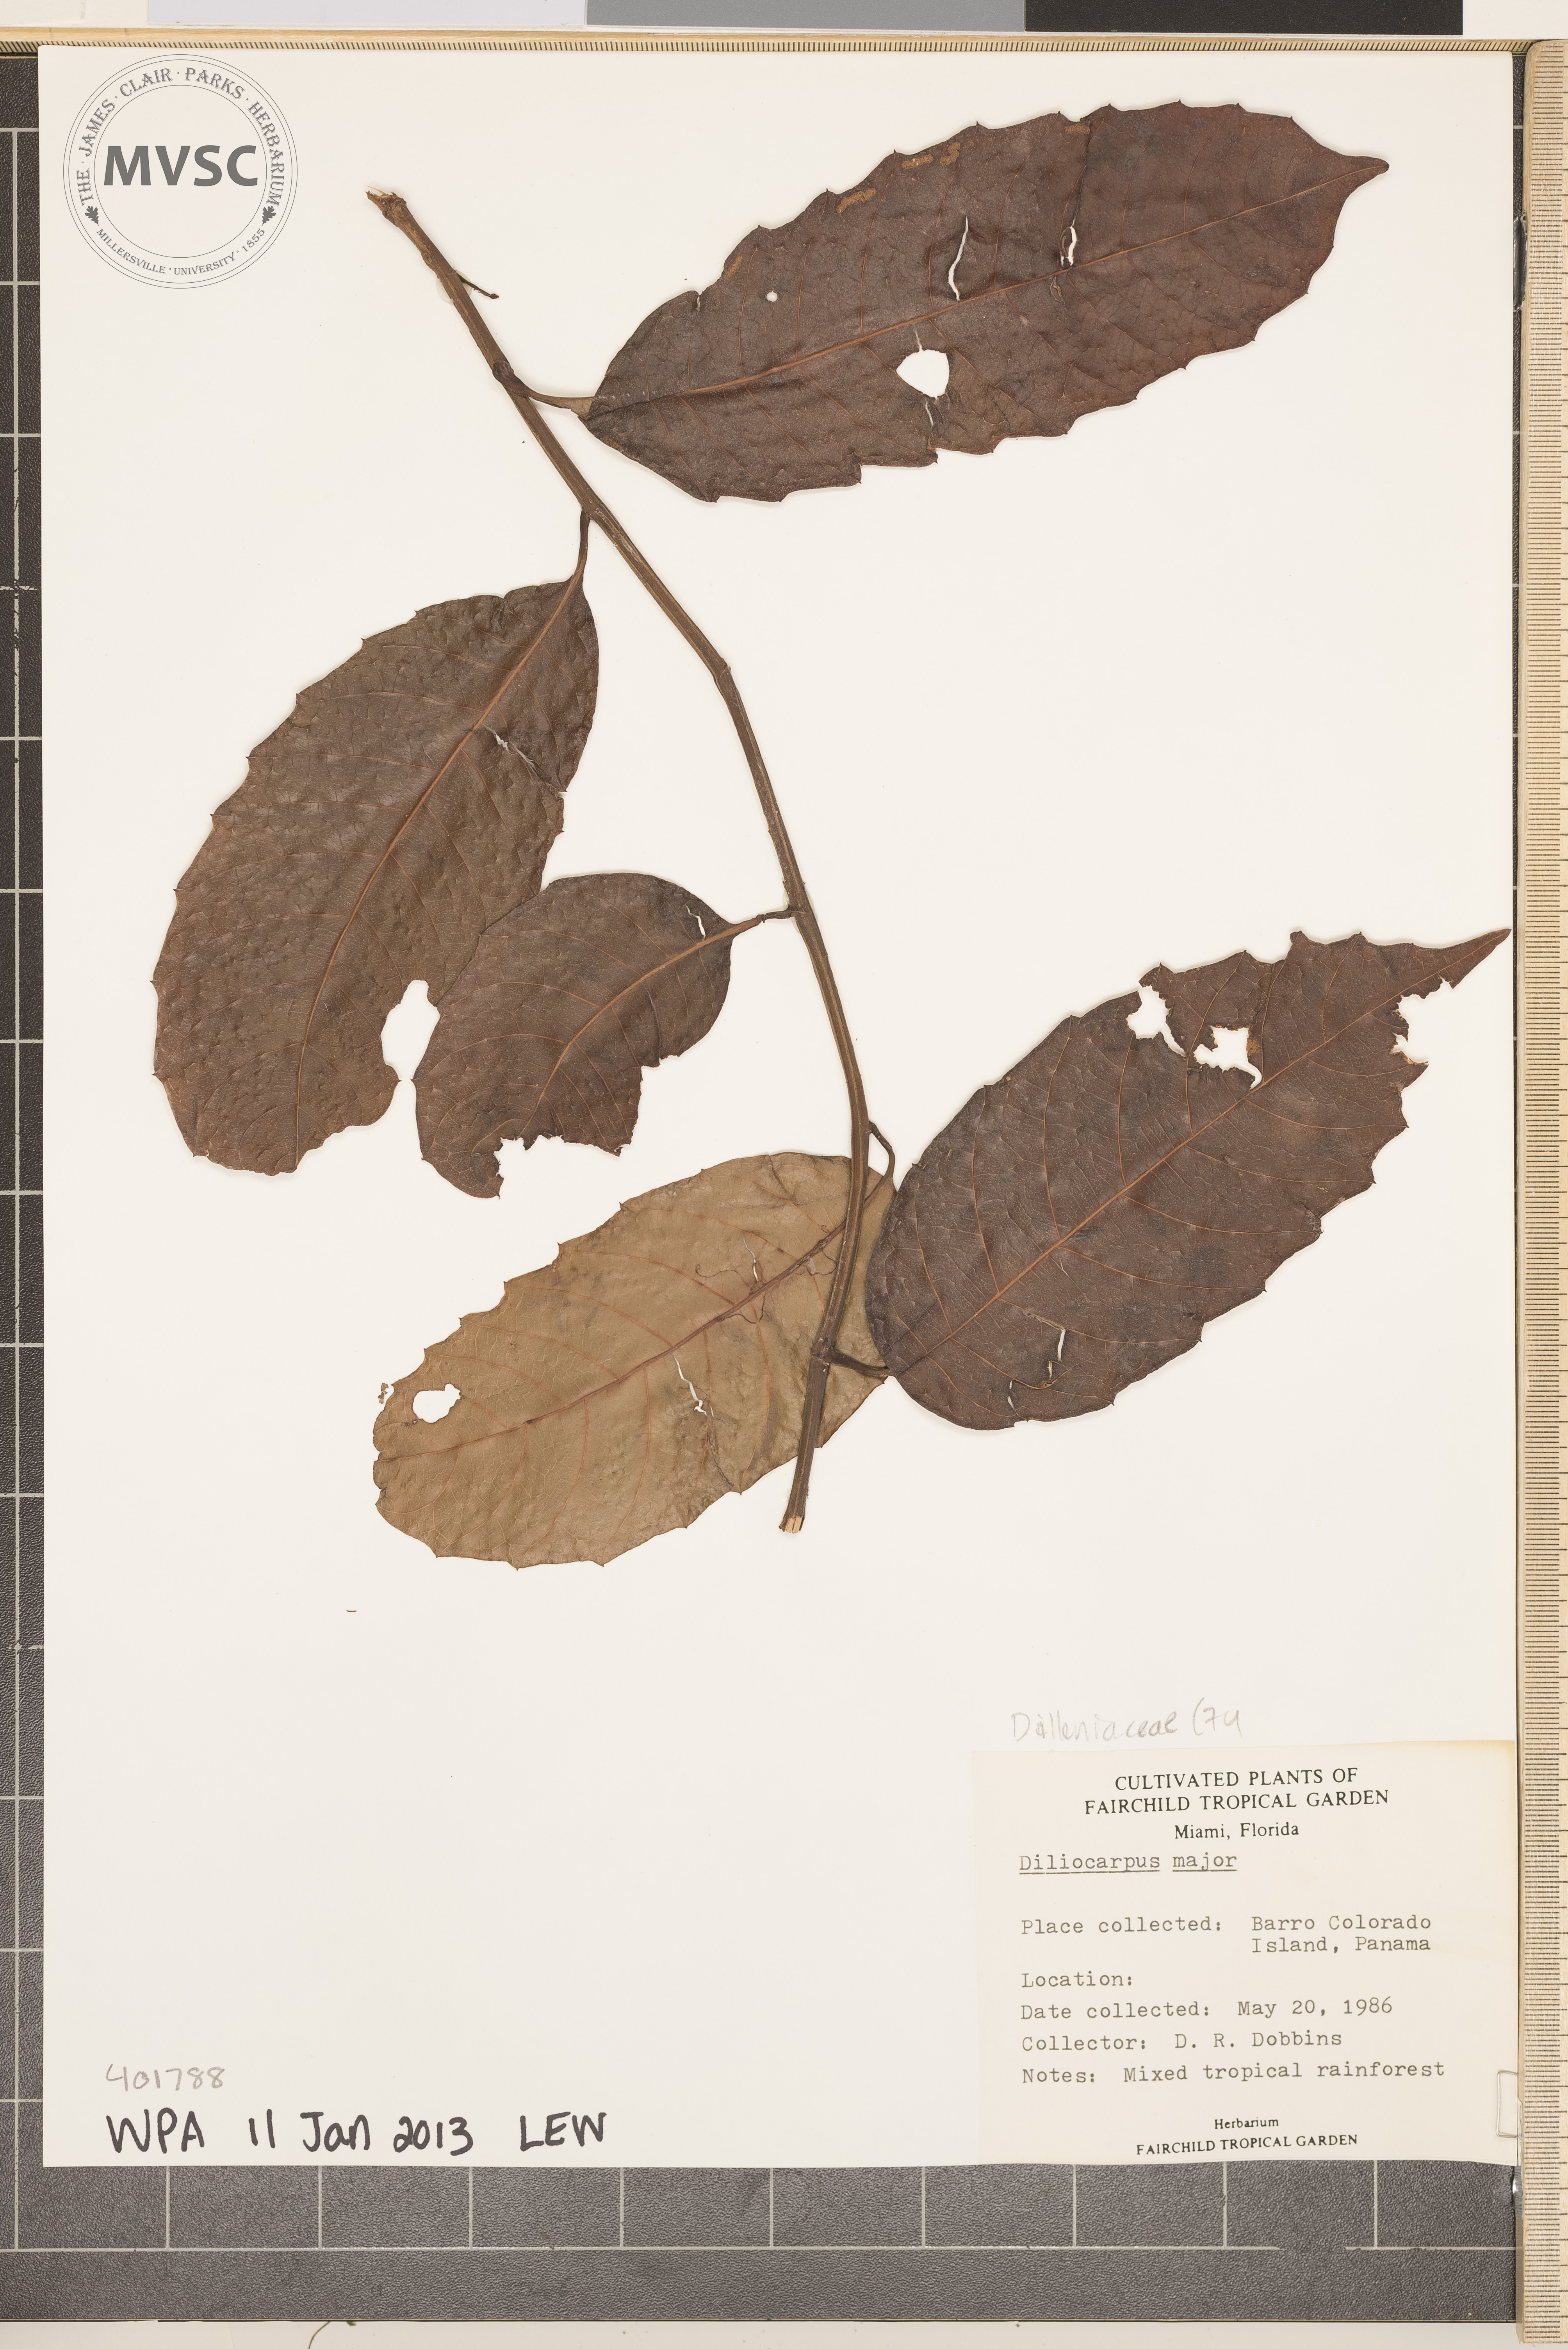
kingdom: Plantae
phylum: Tracheophyta
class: Magnoliopsida
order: Dilleniales
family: Dilleniaceae
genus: Doliocarpus
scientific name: Doliocarpus dentatus
